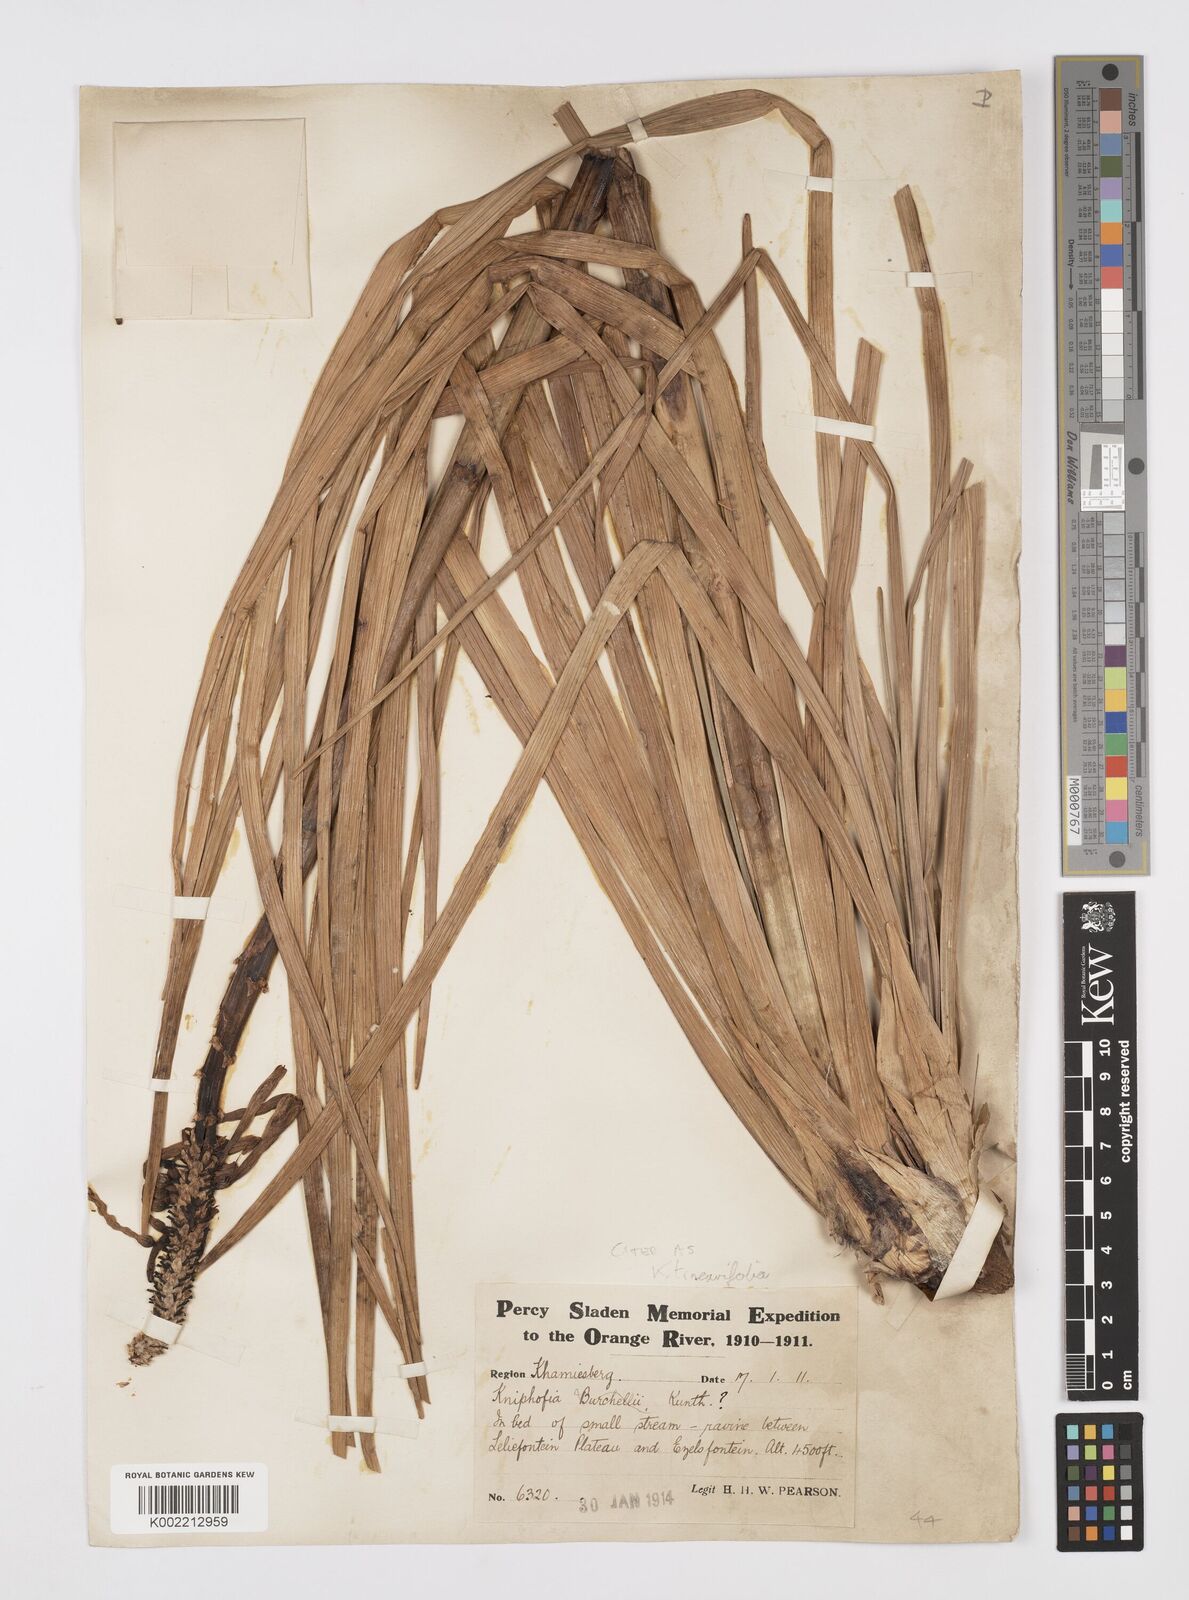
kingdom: Plantae
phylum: Tracheophyta
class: Liliopsida
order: Asparagales
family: Asphodelaceae
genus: Kniphofia
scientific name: Kniphofia linearifolia
